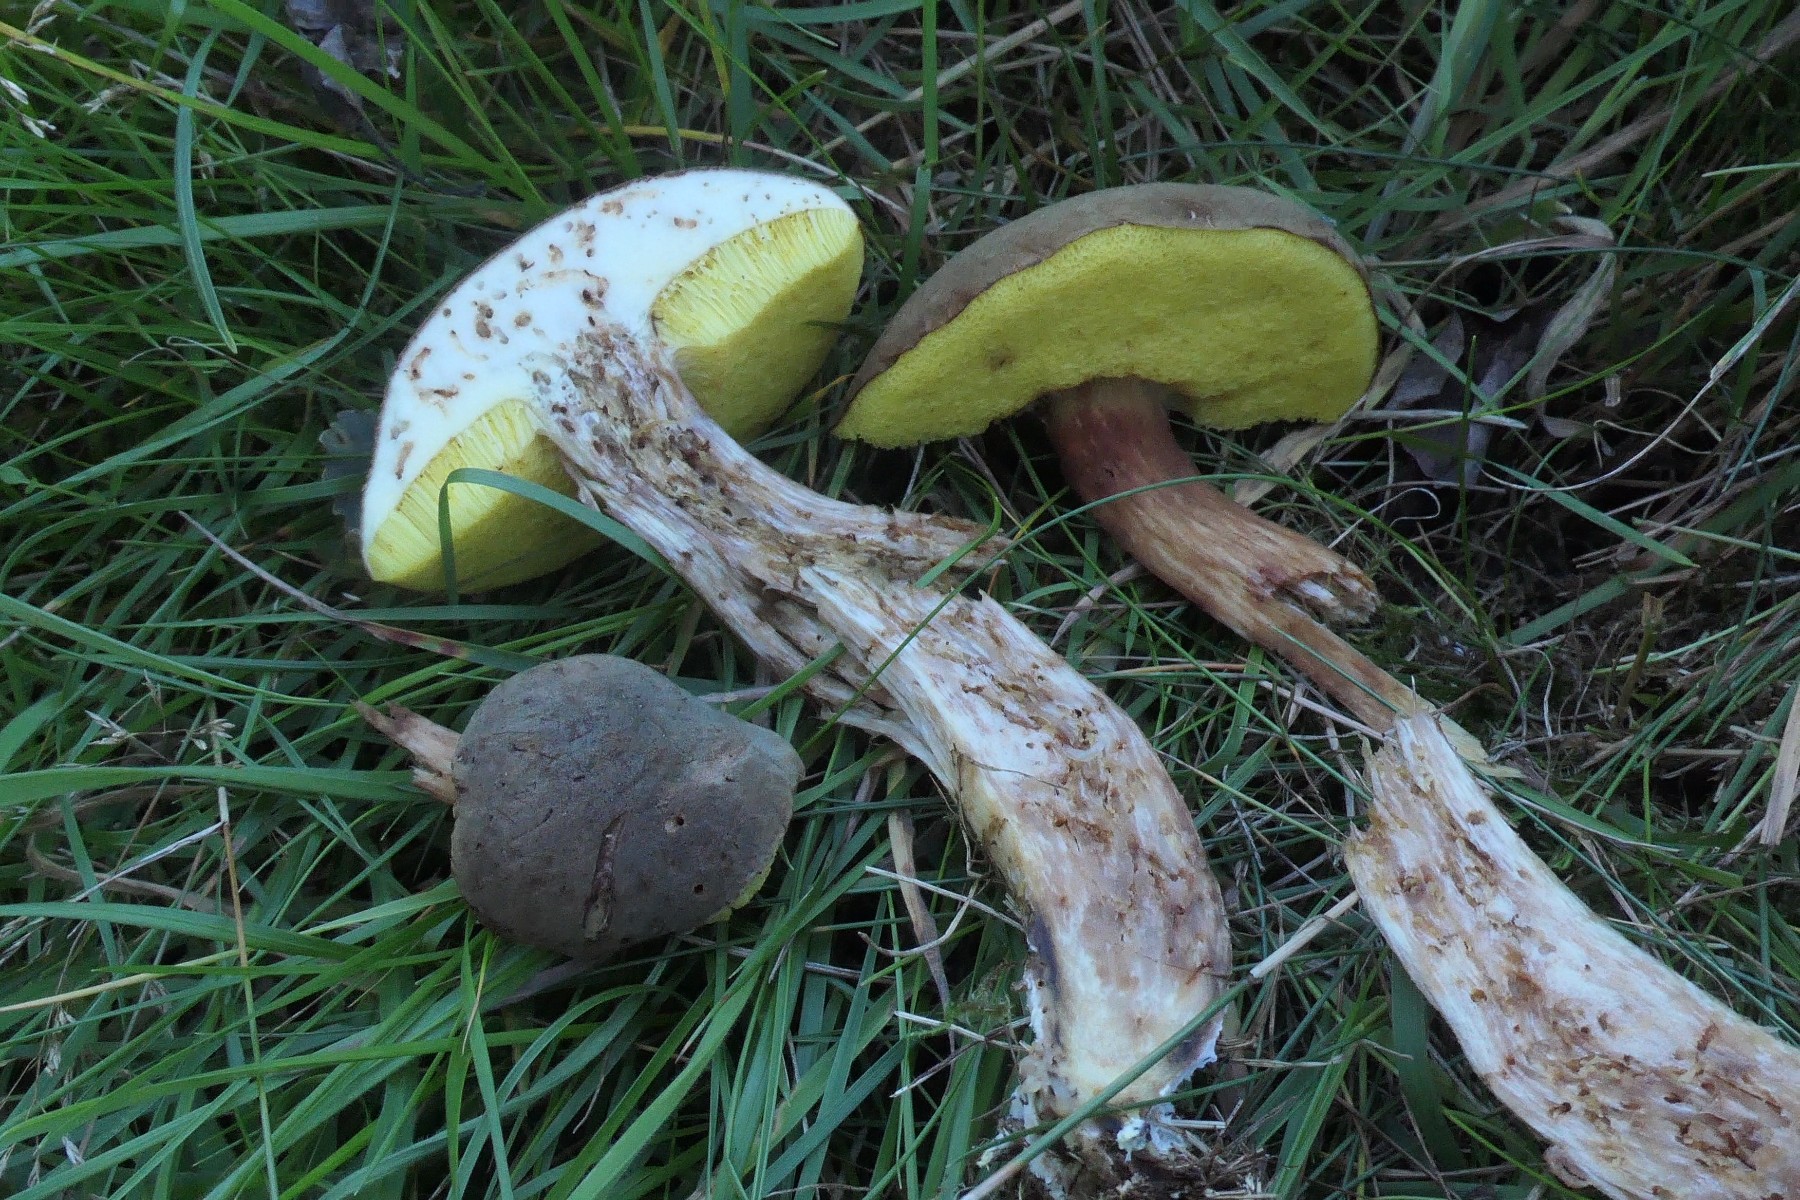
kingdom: Fungi
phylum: Basidiomycota
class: Agaricomycetes
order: Boletales
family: Boletaceae
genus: Xerocomus
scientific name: Xerocomus ferrugineus
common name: vaskeskinds-rørhat
